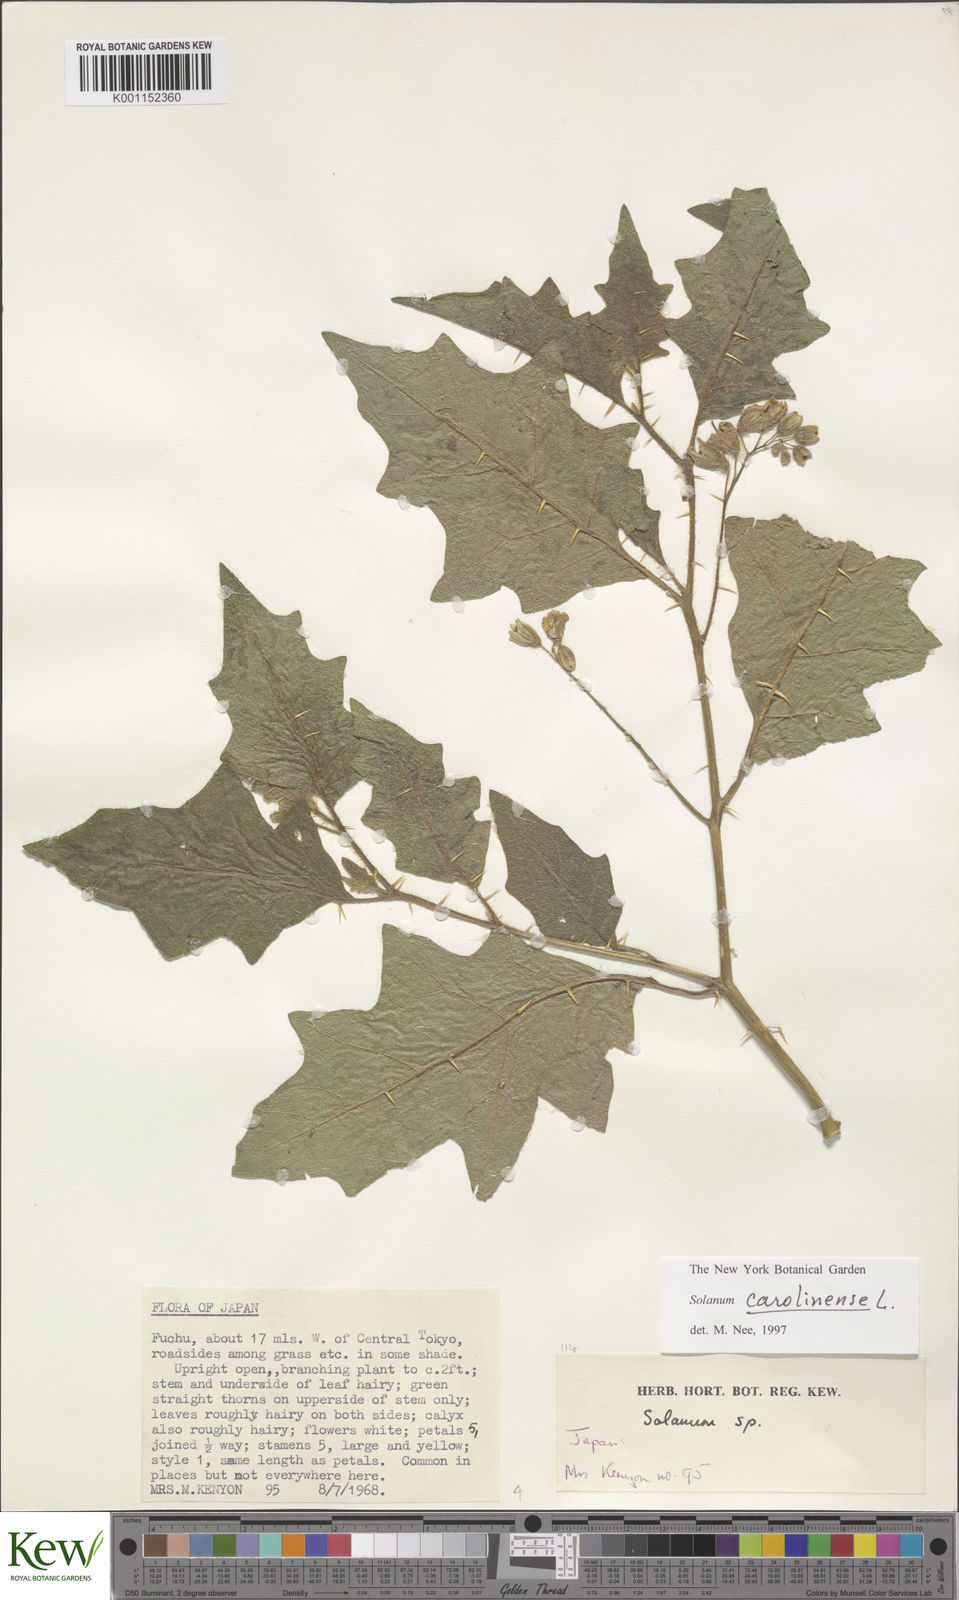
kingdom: Plantae
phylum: Tracheophyta
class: Magnoliopsida
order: Solanales
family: Solanaceae
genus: Solanum
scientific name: Solanum carolinense
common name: Horse-nettle
